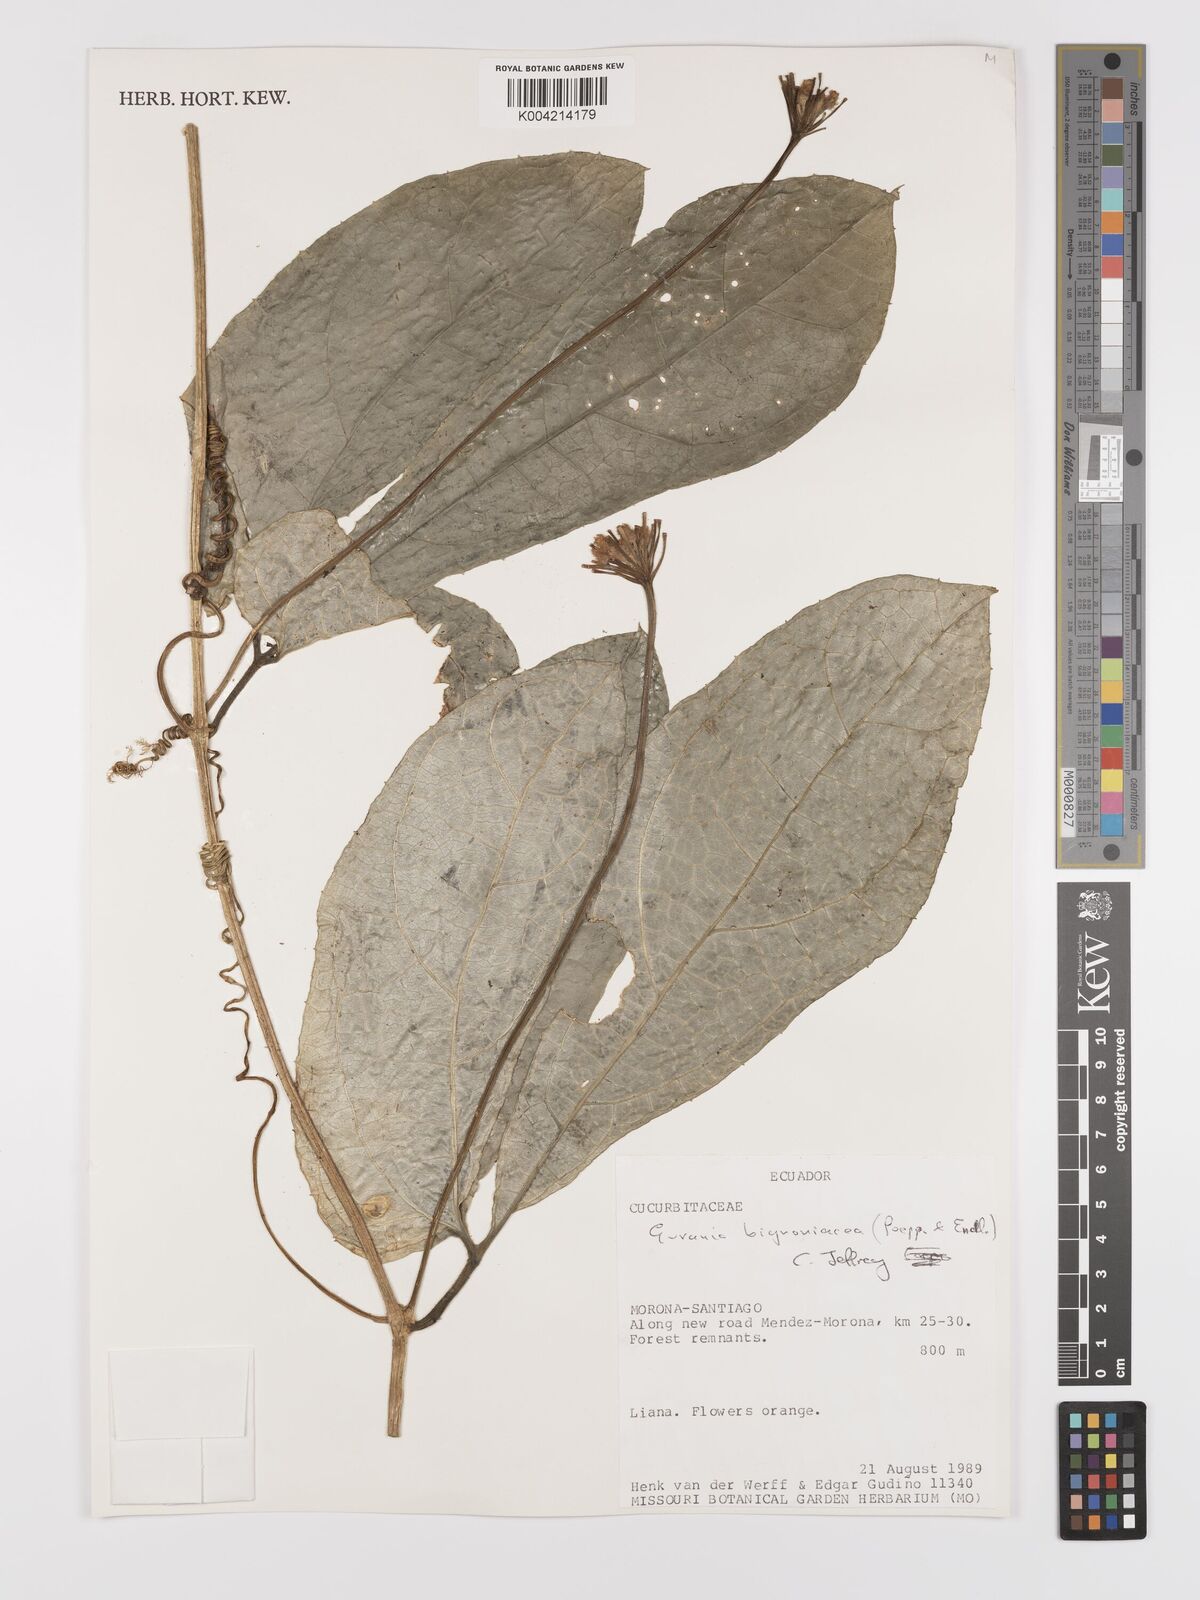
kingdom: Plantae
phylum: Tracheophyta
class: Magnoliopsida
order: Cucurbitales
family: Cucurbitaceae
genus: Gurania
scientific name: Gurania bignoniacea
